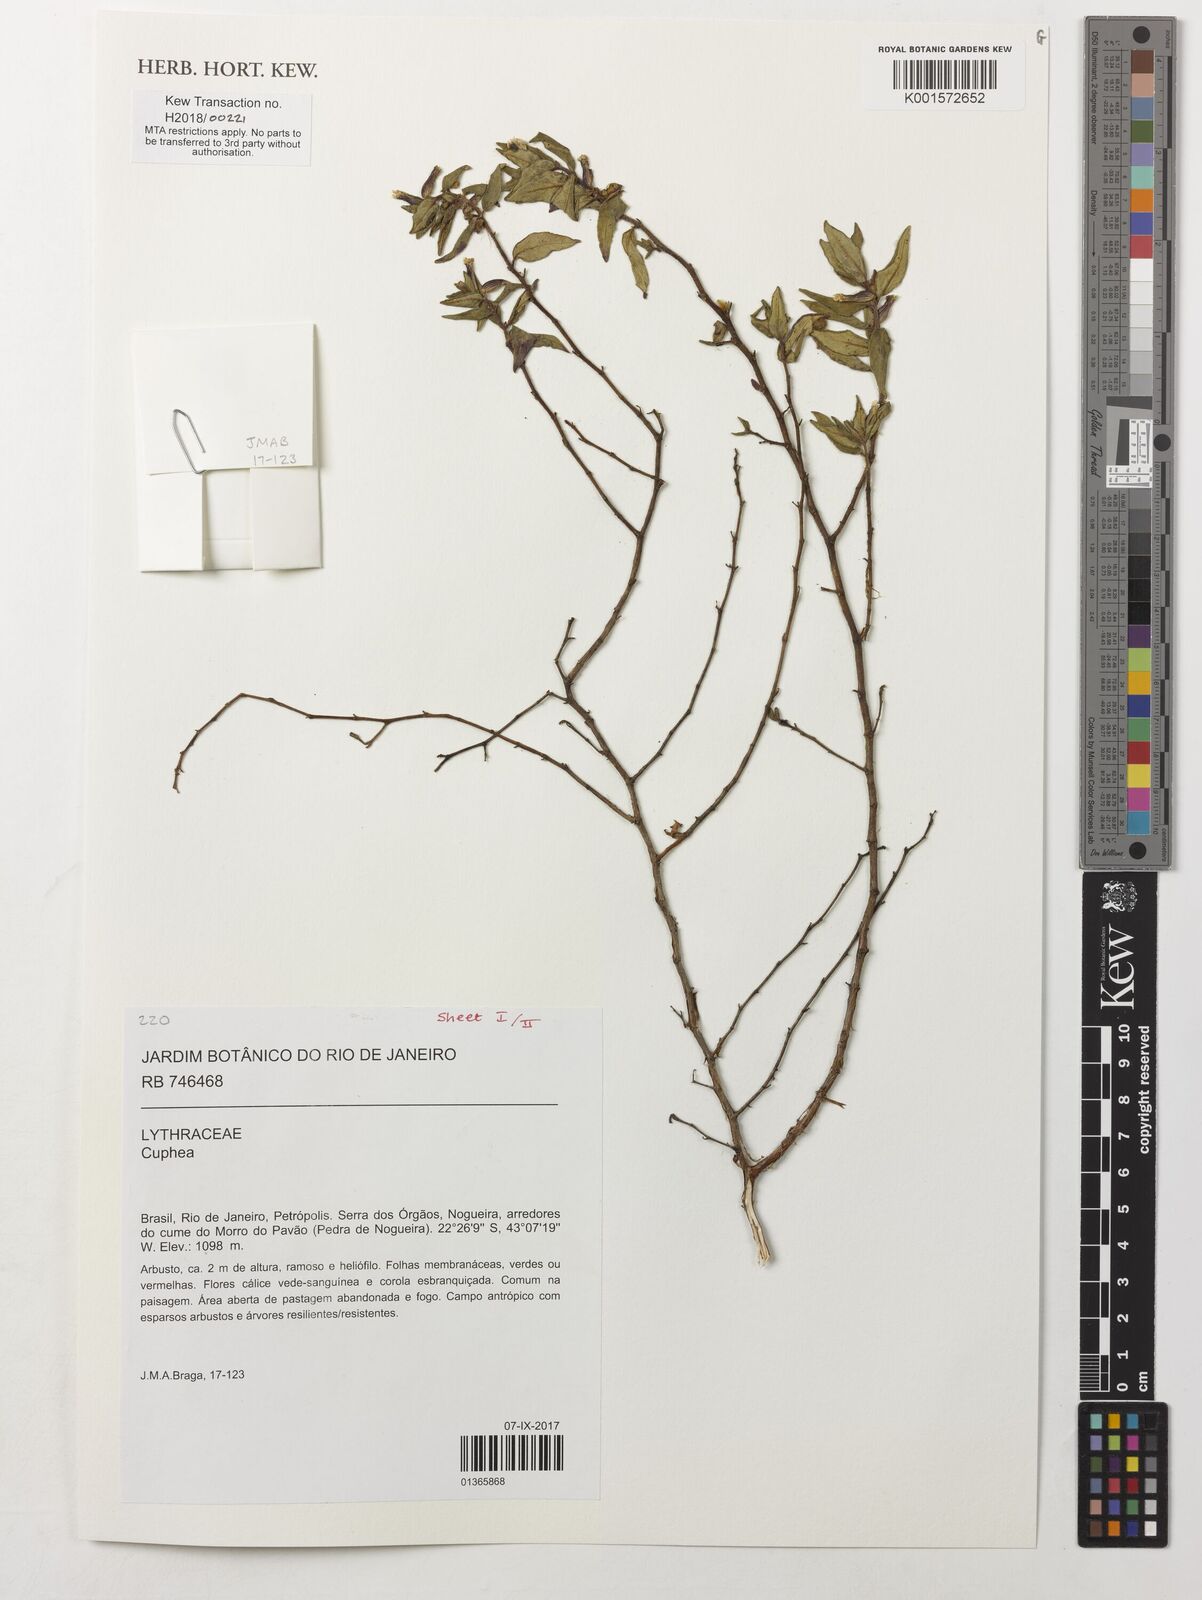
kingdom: Plantae
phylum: Tracheophyta
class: Magnoliopsida
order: Myrtales
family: Lythraceae
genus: Cuphea
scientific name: Cuphea
